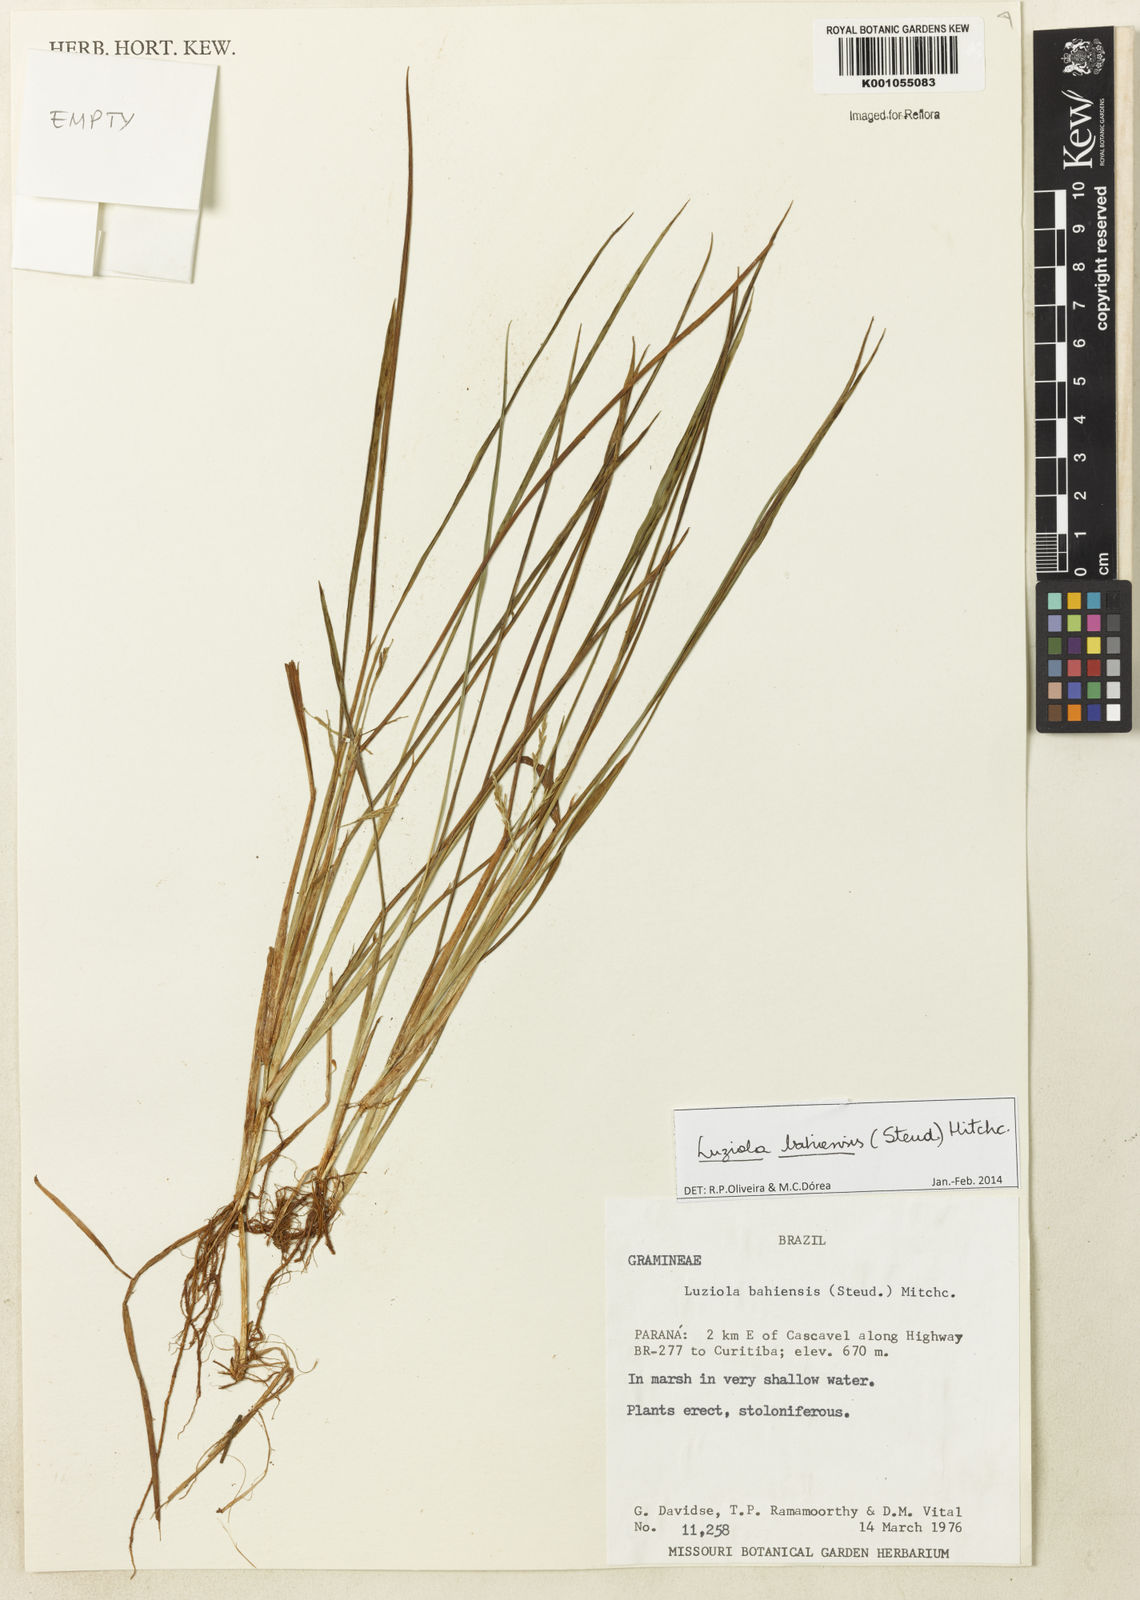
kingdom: Plantae
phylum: Tracheophyta
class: Liliopsida
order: Poales
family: Poaceae
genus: Luziola
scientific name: Luziola bahiensis
